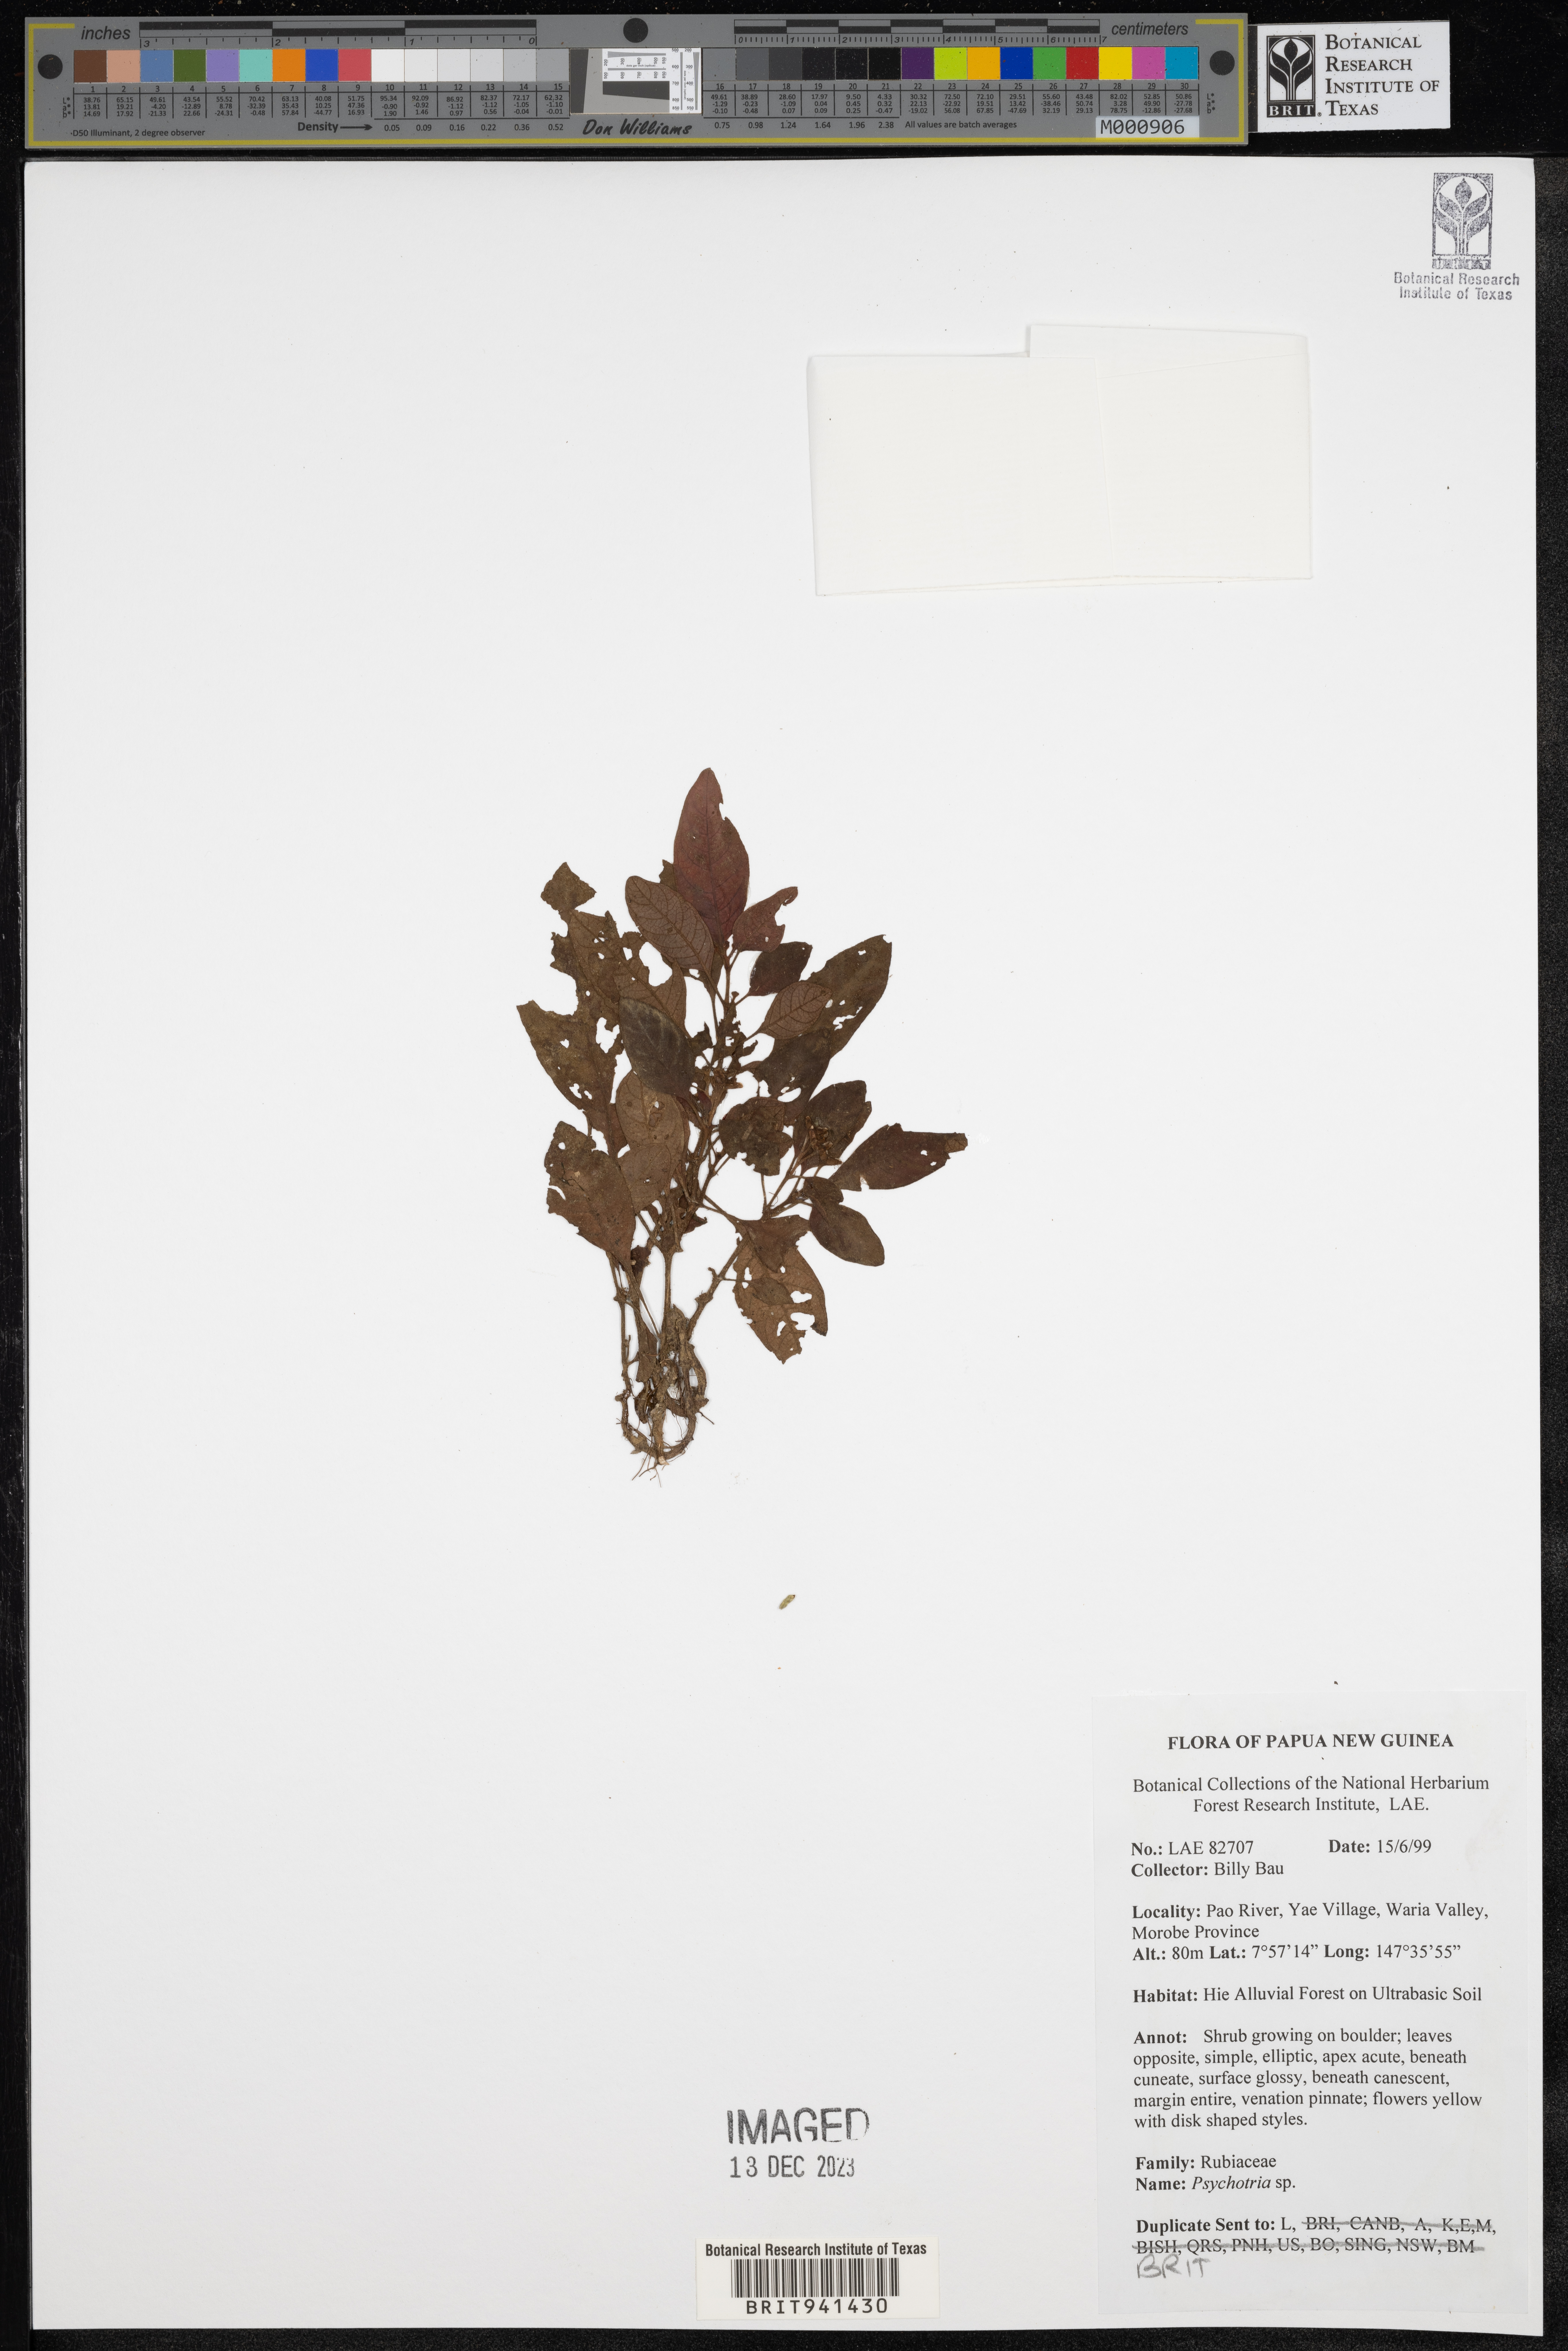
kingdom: Plantae
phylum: Tracheophyta
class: Magnoliopsida
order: Gentianales
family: Rubiaceae
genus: Psychotria
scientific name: Psychotria
